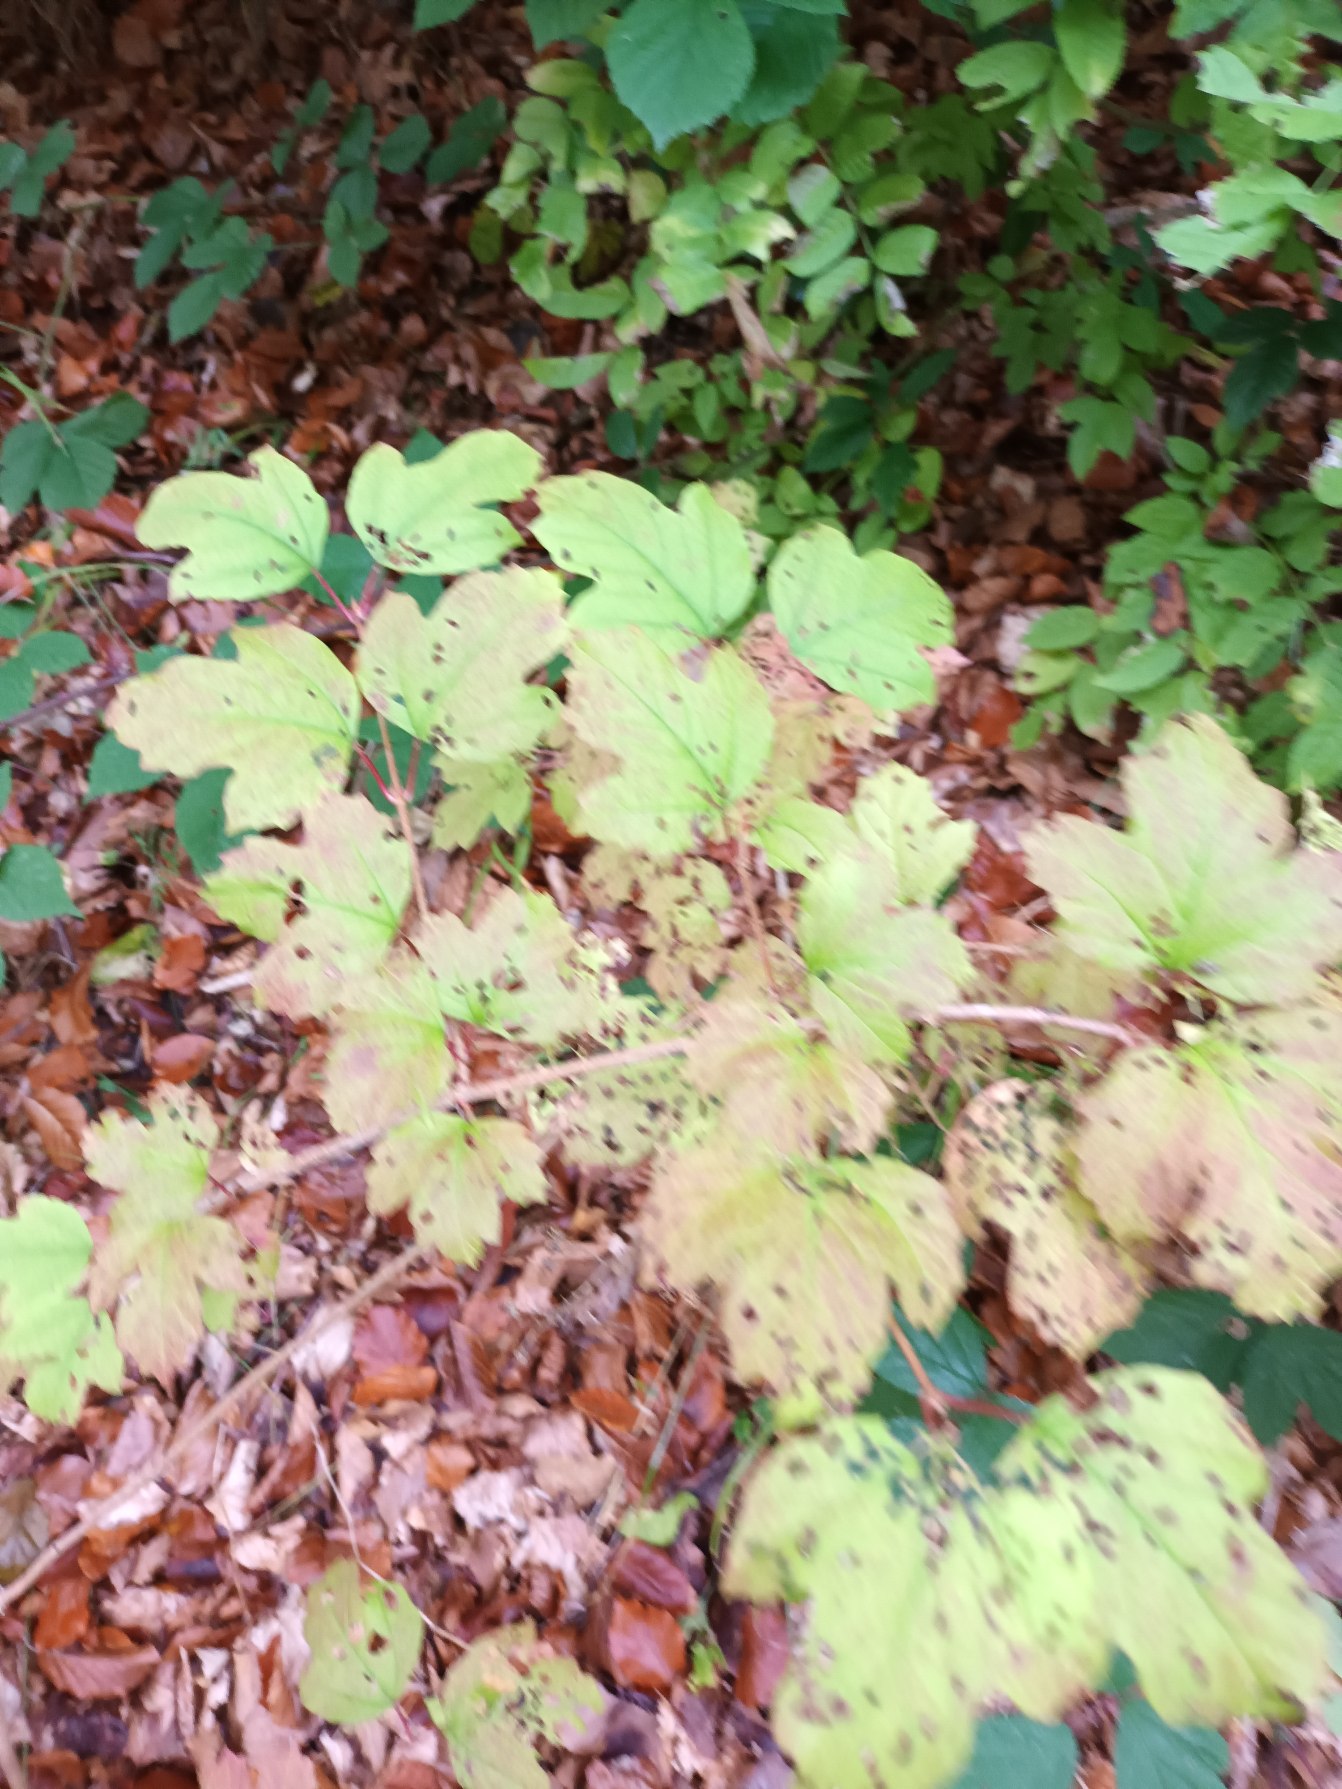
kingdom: Plantae
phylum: Tracheophyta
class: Magnoliopsida
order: Dipsacales
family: Viburnaceae
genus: Viburnum
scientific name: Viburnum opulus
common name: Kvalkved
